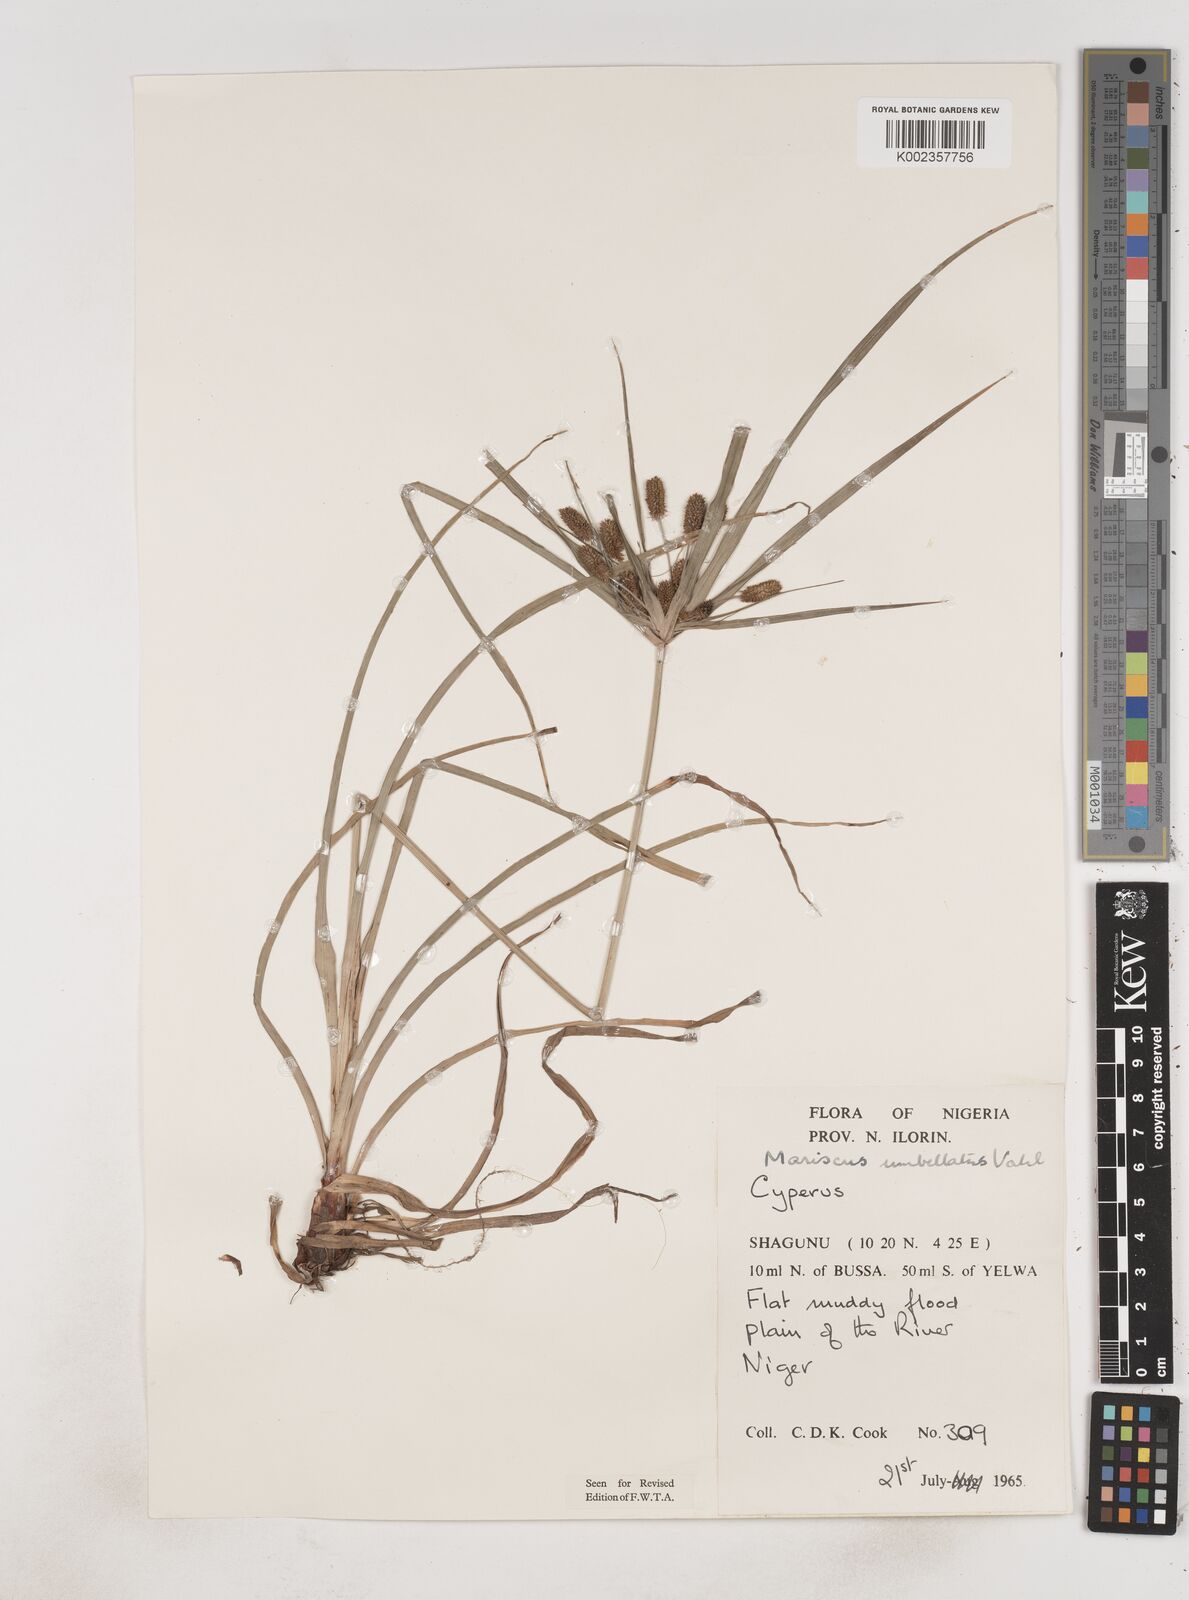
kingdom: Plantae
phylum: Tracheophyta
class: Liliopsida
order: Poales
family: Cyperaceae
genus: Cyperus
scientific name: Cyperus sublimis
